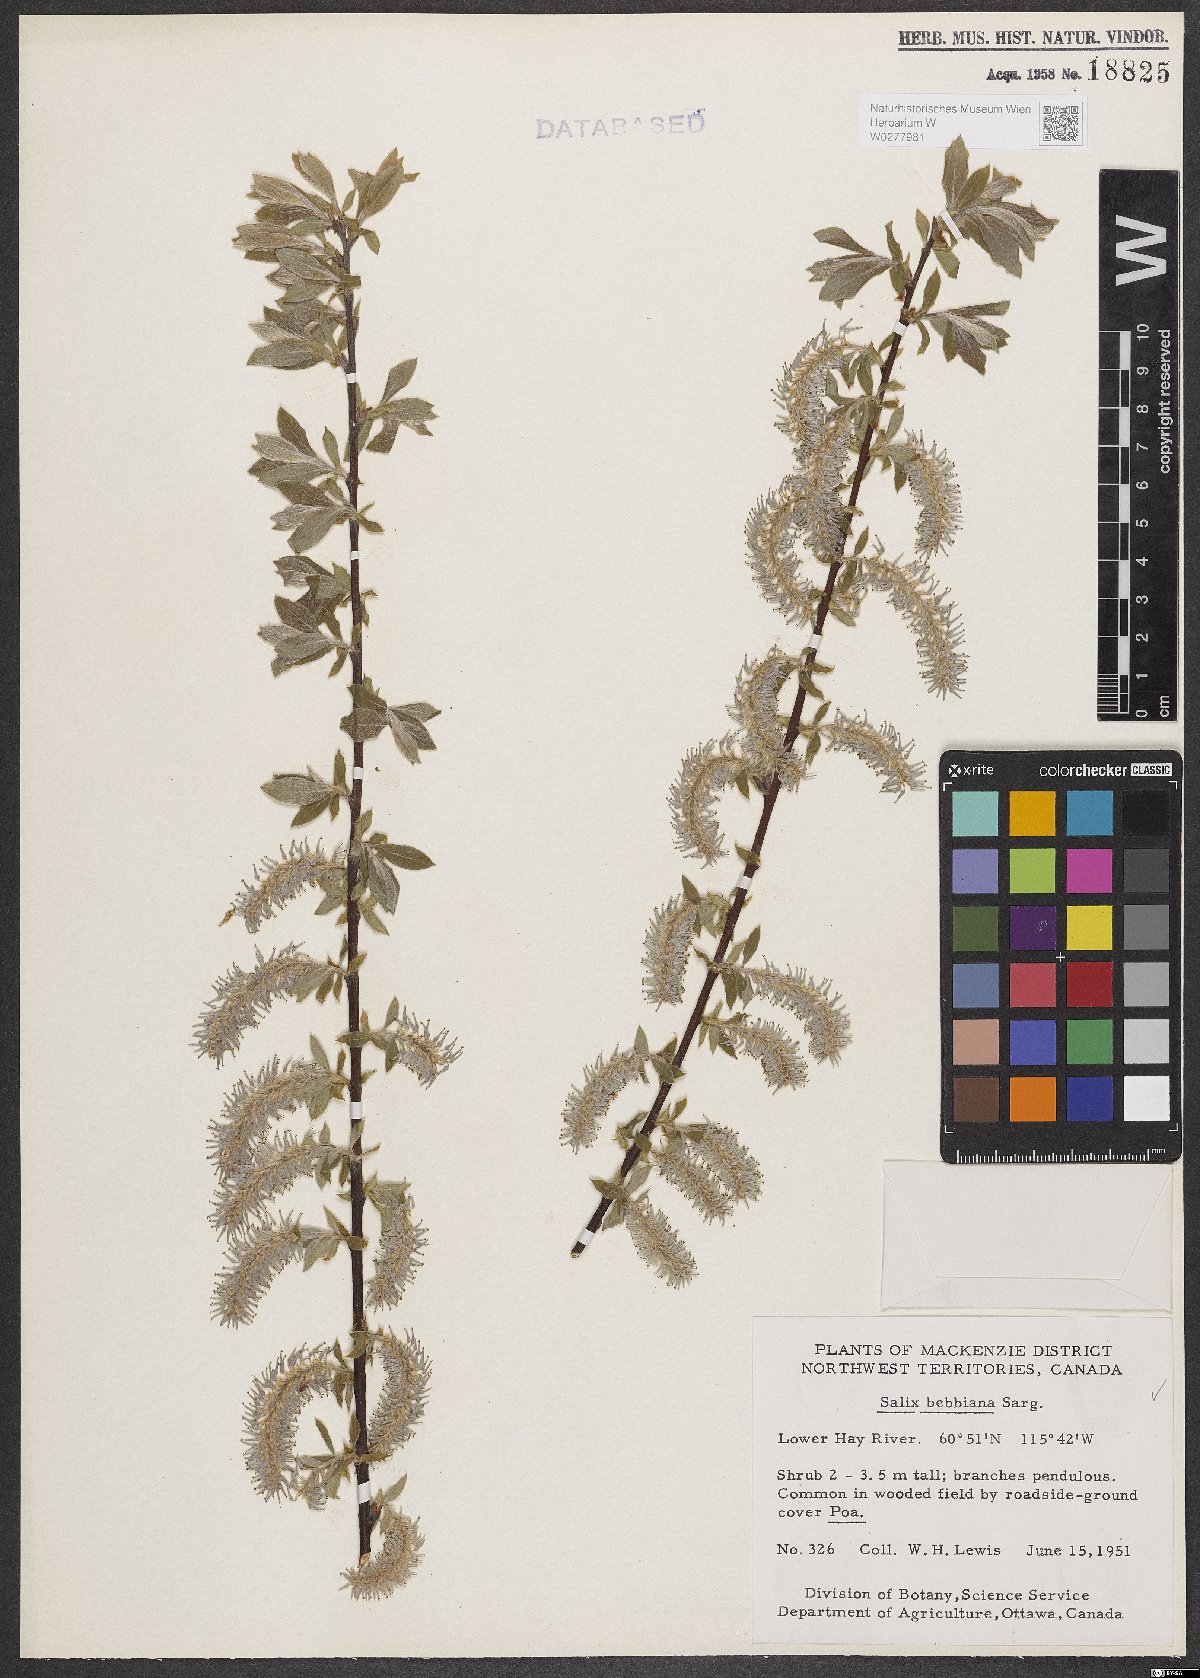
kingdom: Plantae
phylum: Tracheophyta
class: Magnoliopsida
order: Malpighiales
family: Salicaceae
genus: Salix
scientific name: Salix bebbiana
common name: Bebb's willow
